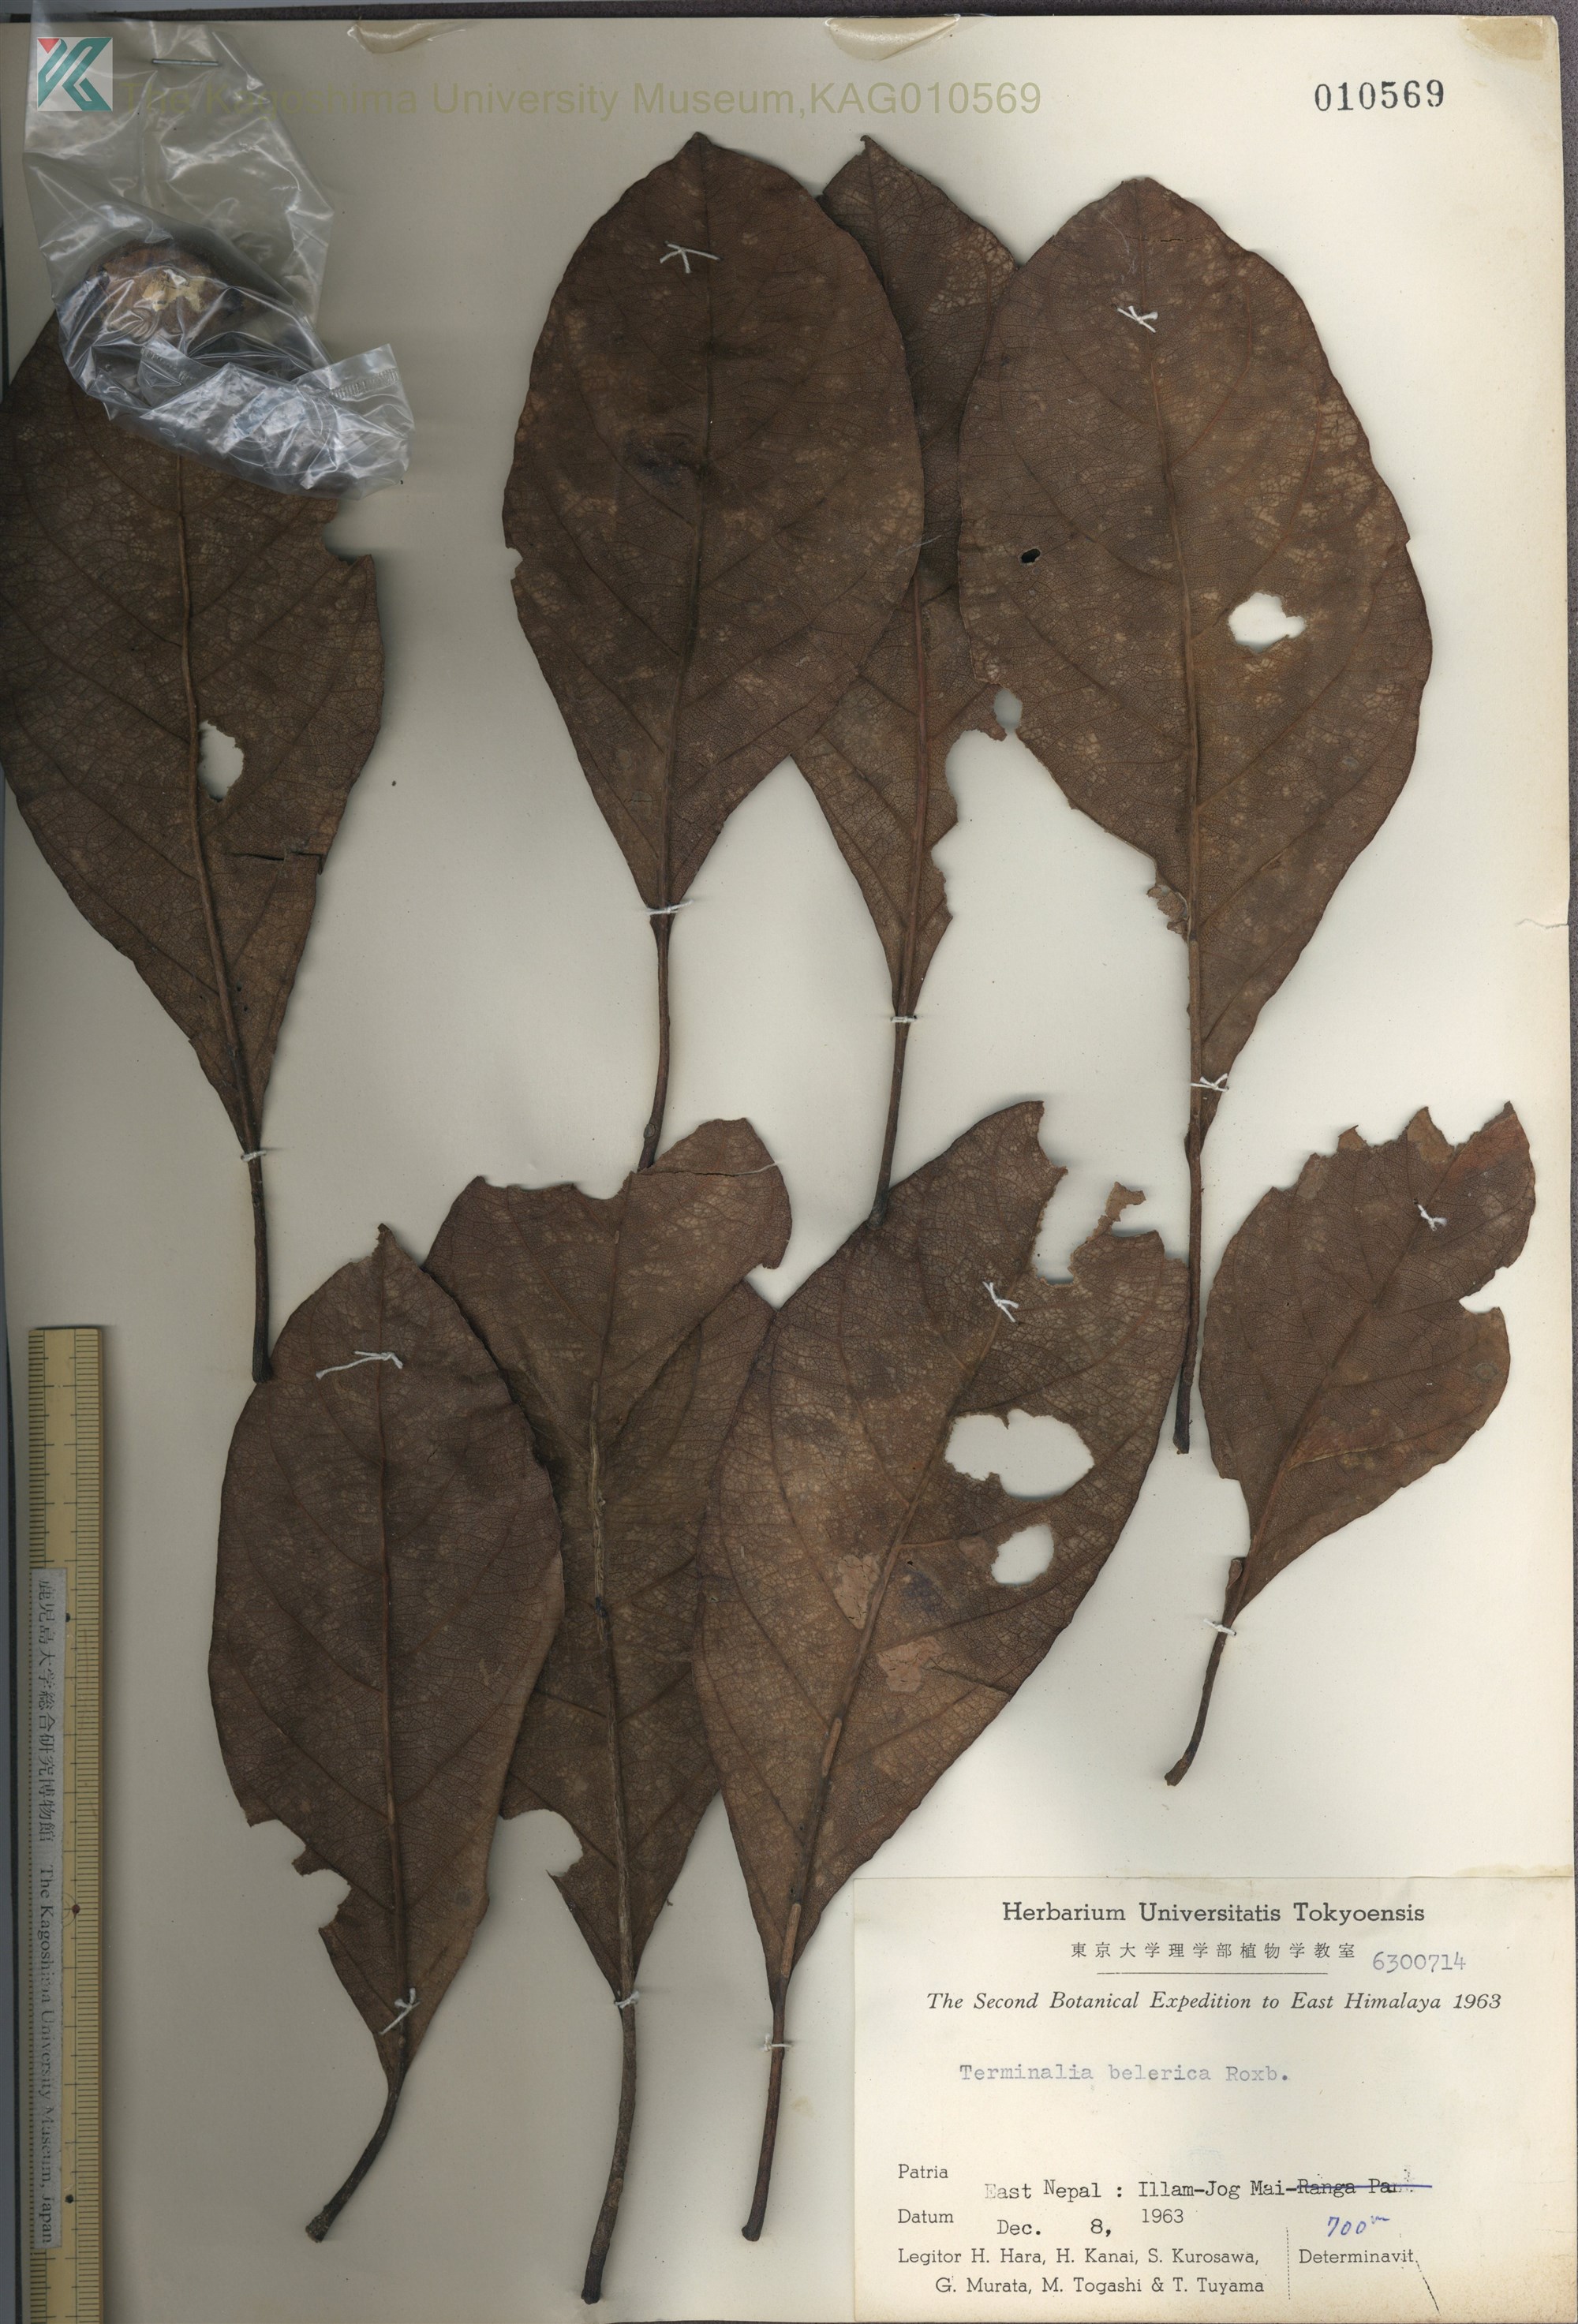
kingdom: Plantae
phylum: Tracheophyta
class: Magnoliopsida
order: Myrtales
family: Combretaceae
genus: Terminalia
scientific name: Terminalia bellirica
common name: Beleric myrobalan
